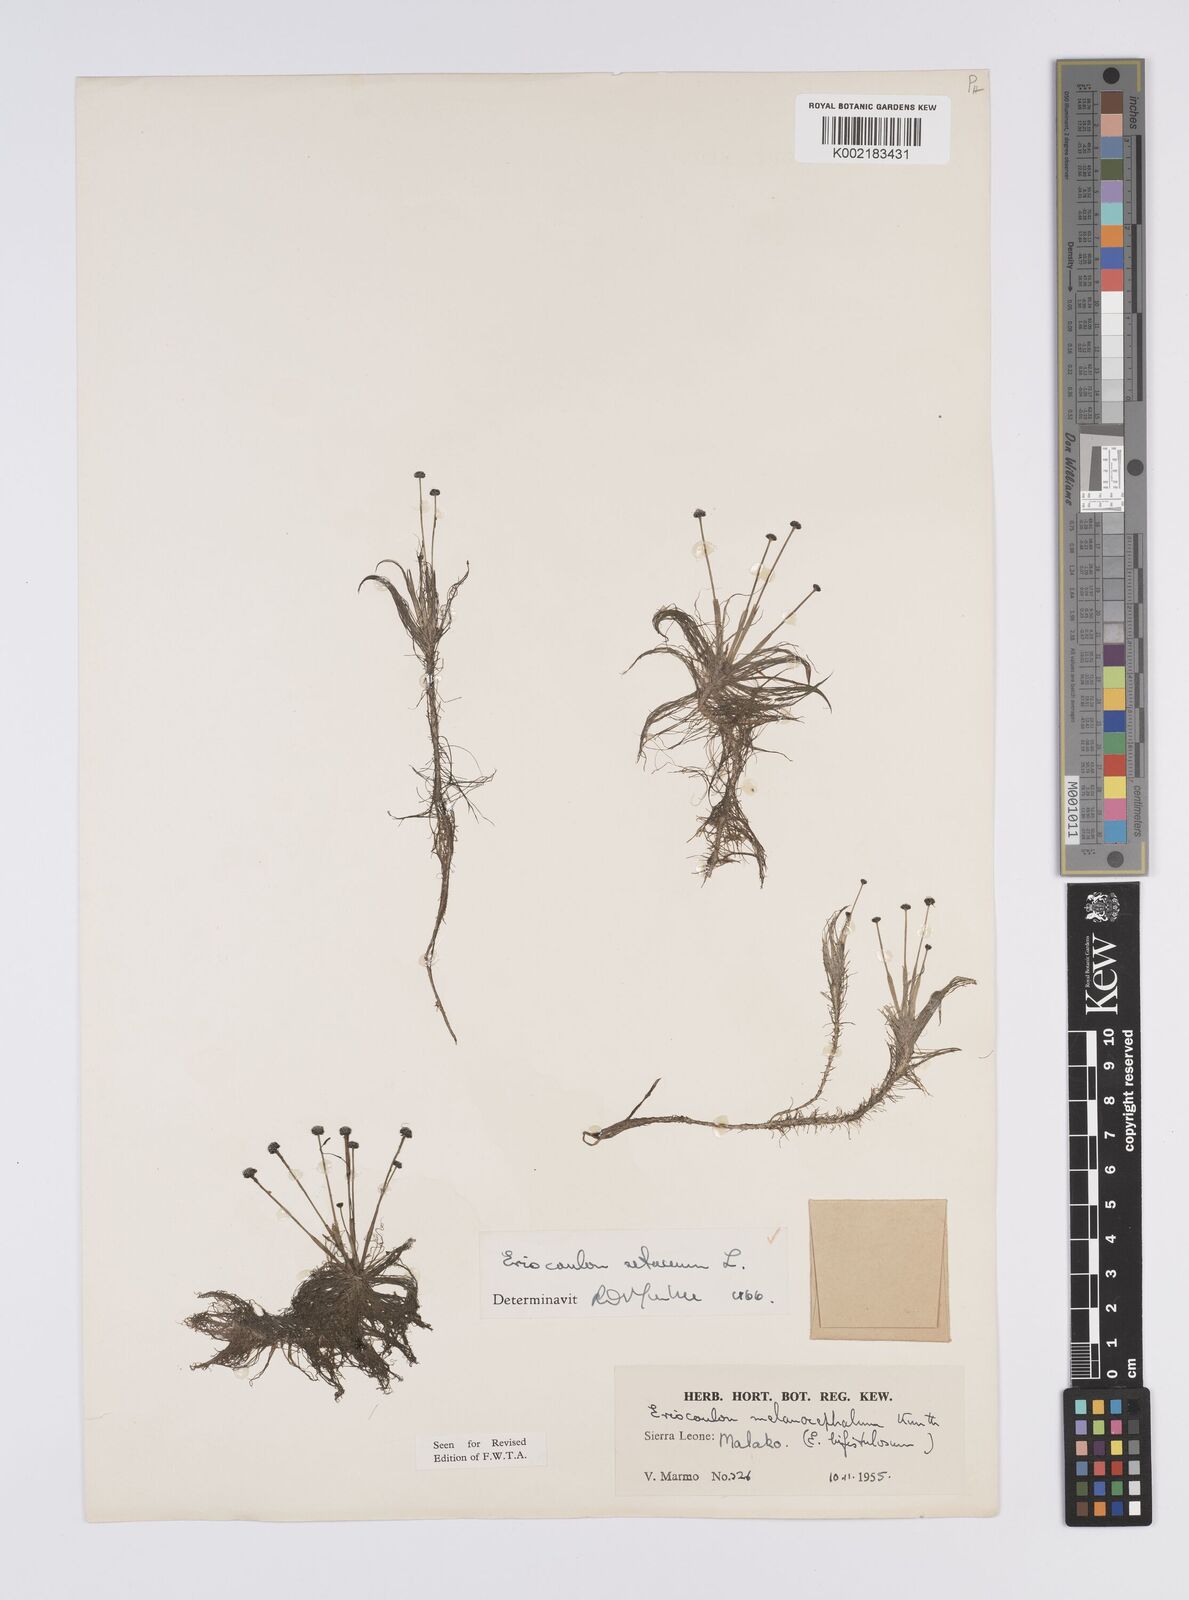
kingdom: Plantae
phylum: Tracheophyta
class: Liliopsida
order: Poales
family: Eriocaulaceae
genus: Eriocaulon
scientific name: Eriocaulon setaceum
